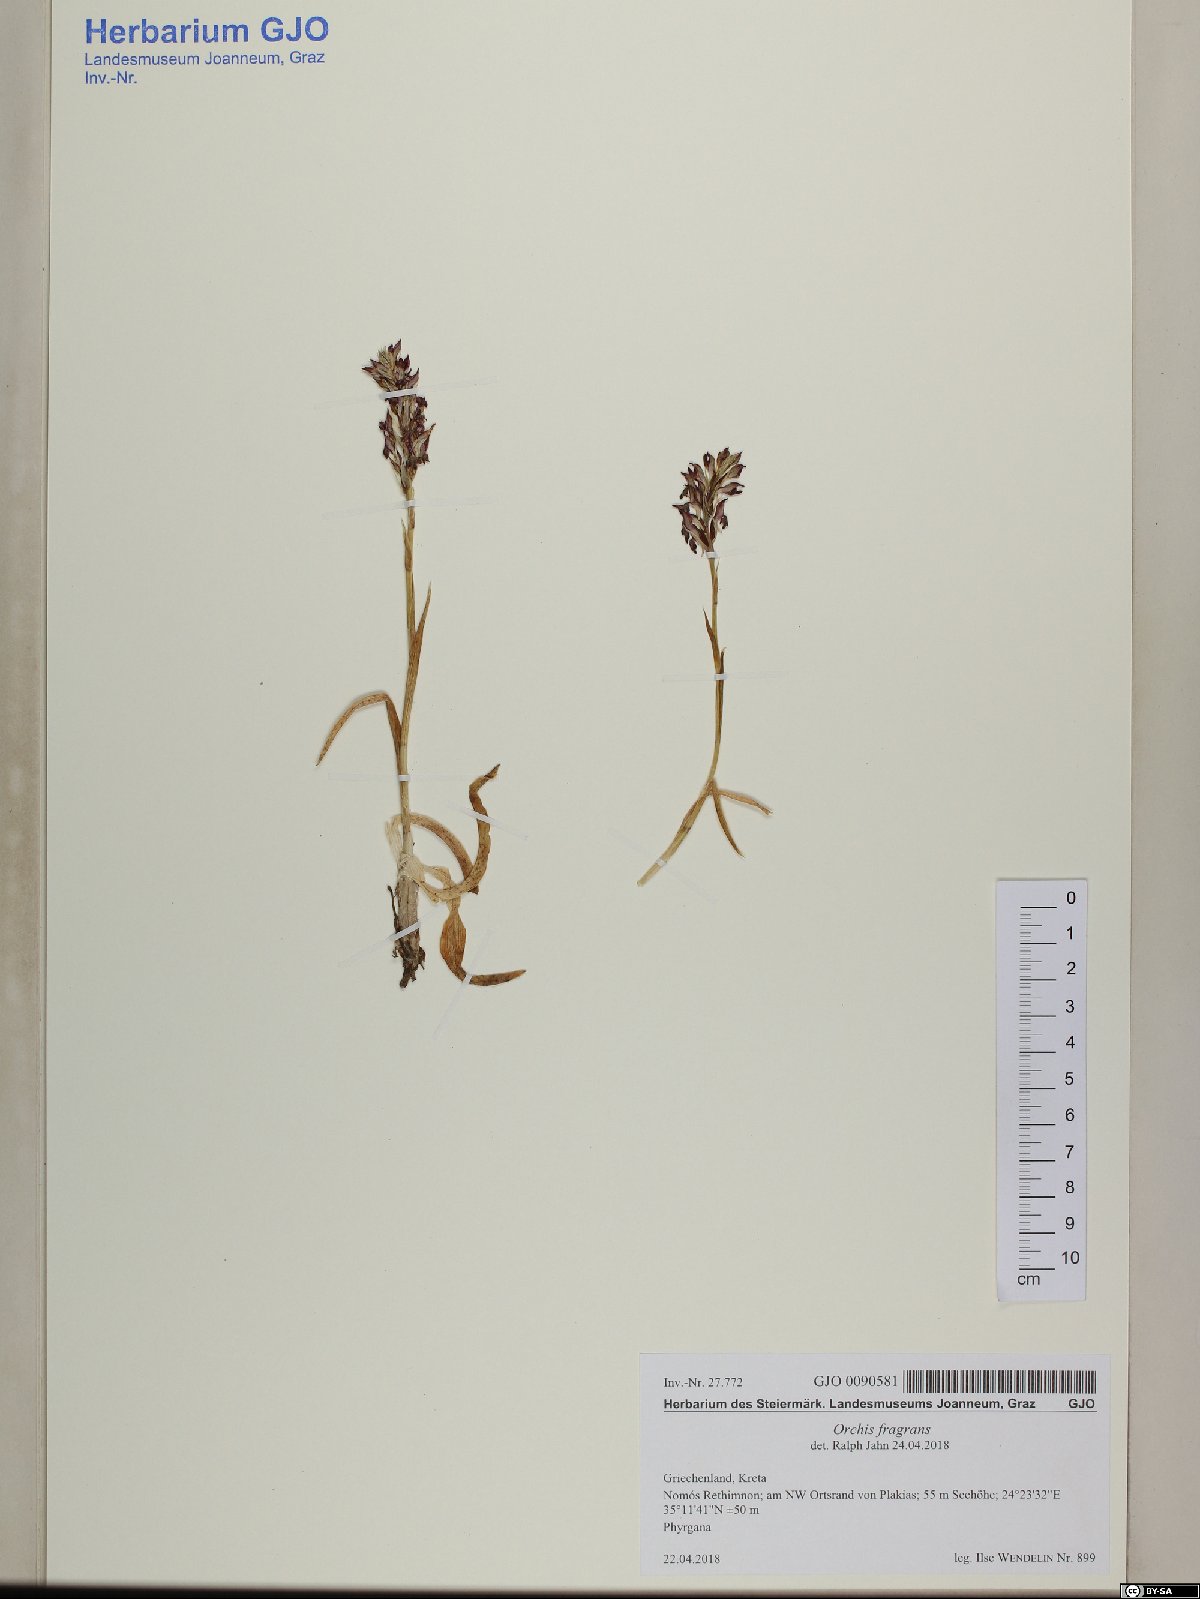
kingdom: Plantae
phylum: Tracheophyta
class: Liliopsida
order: Asparagales
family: Orchidaceae
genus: Anacamptis
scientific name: Anacamptis coriophora
